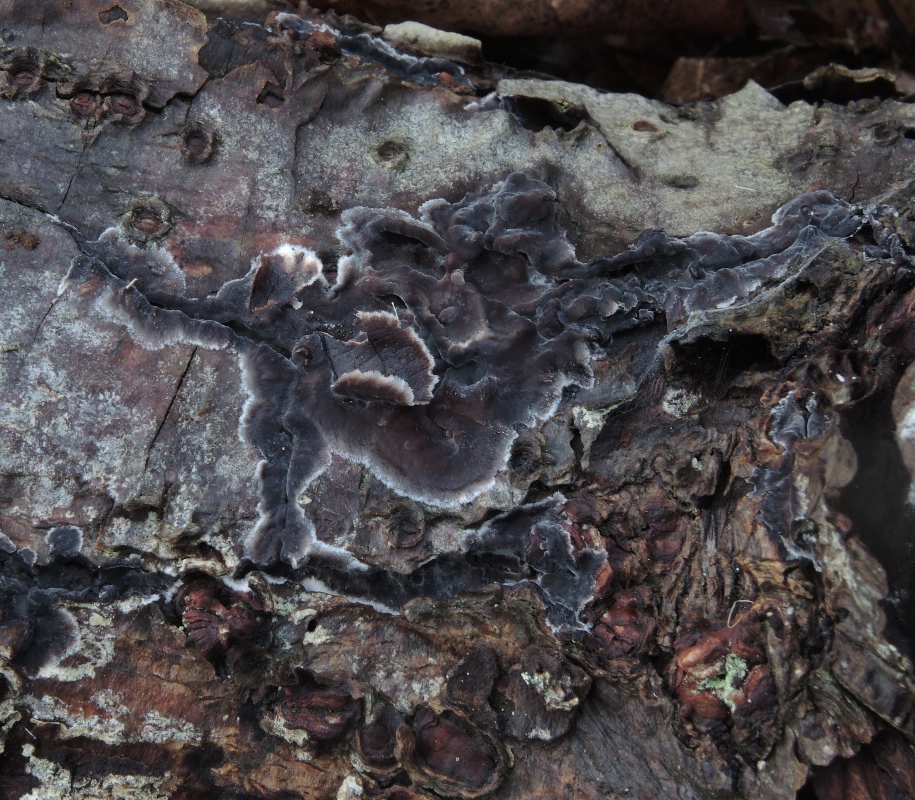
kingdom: Fungi
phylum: Basidiomycota
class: Agaricomycetes
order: Russulales
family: Peniophoraceae
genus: Peniophora
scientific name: Peniophora rufomarginata
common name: linde-voksskind
